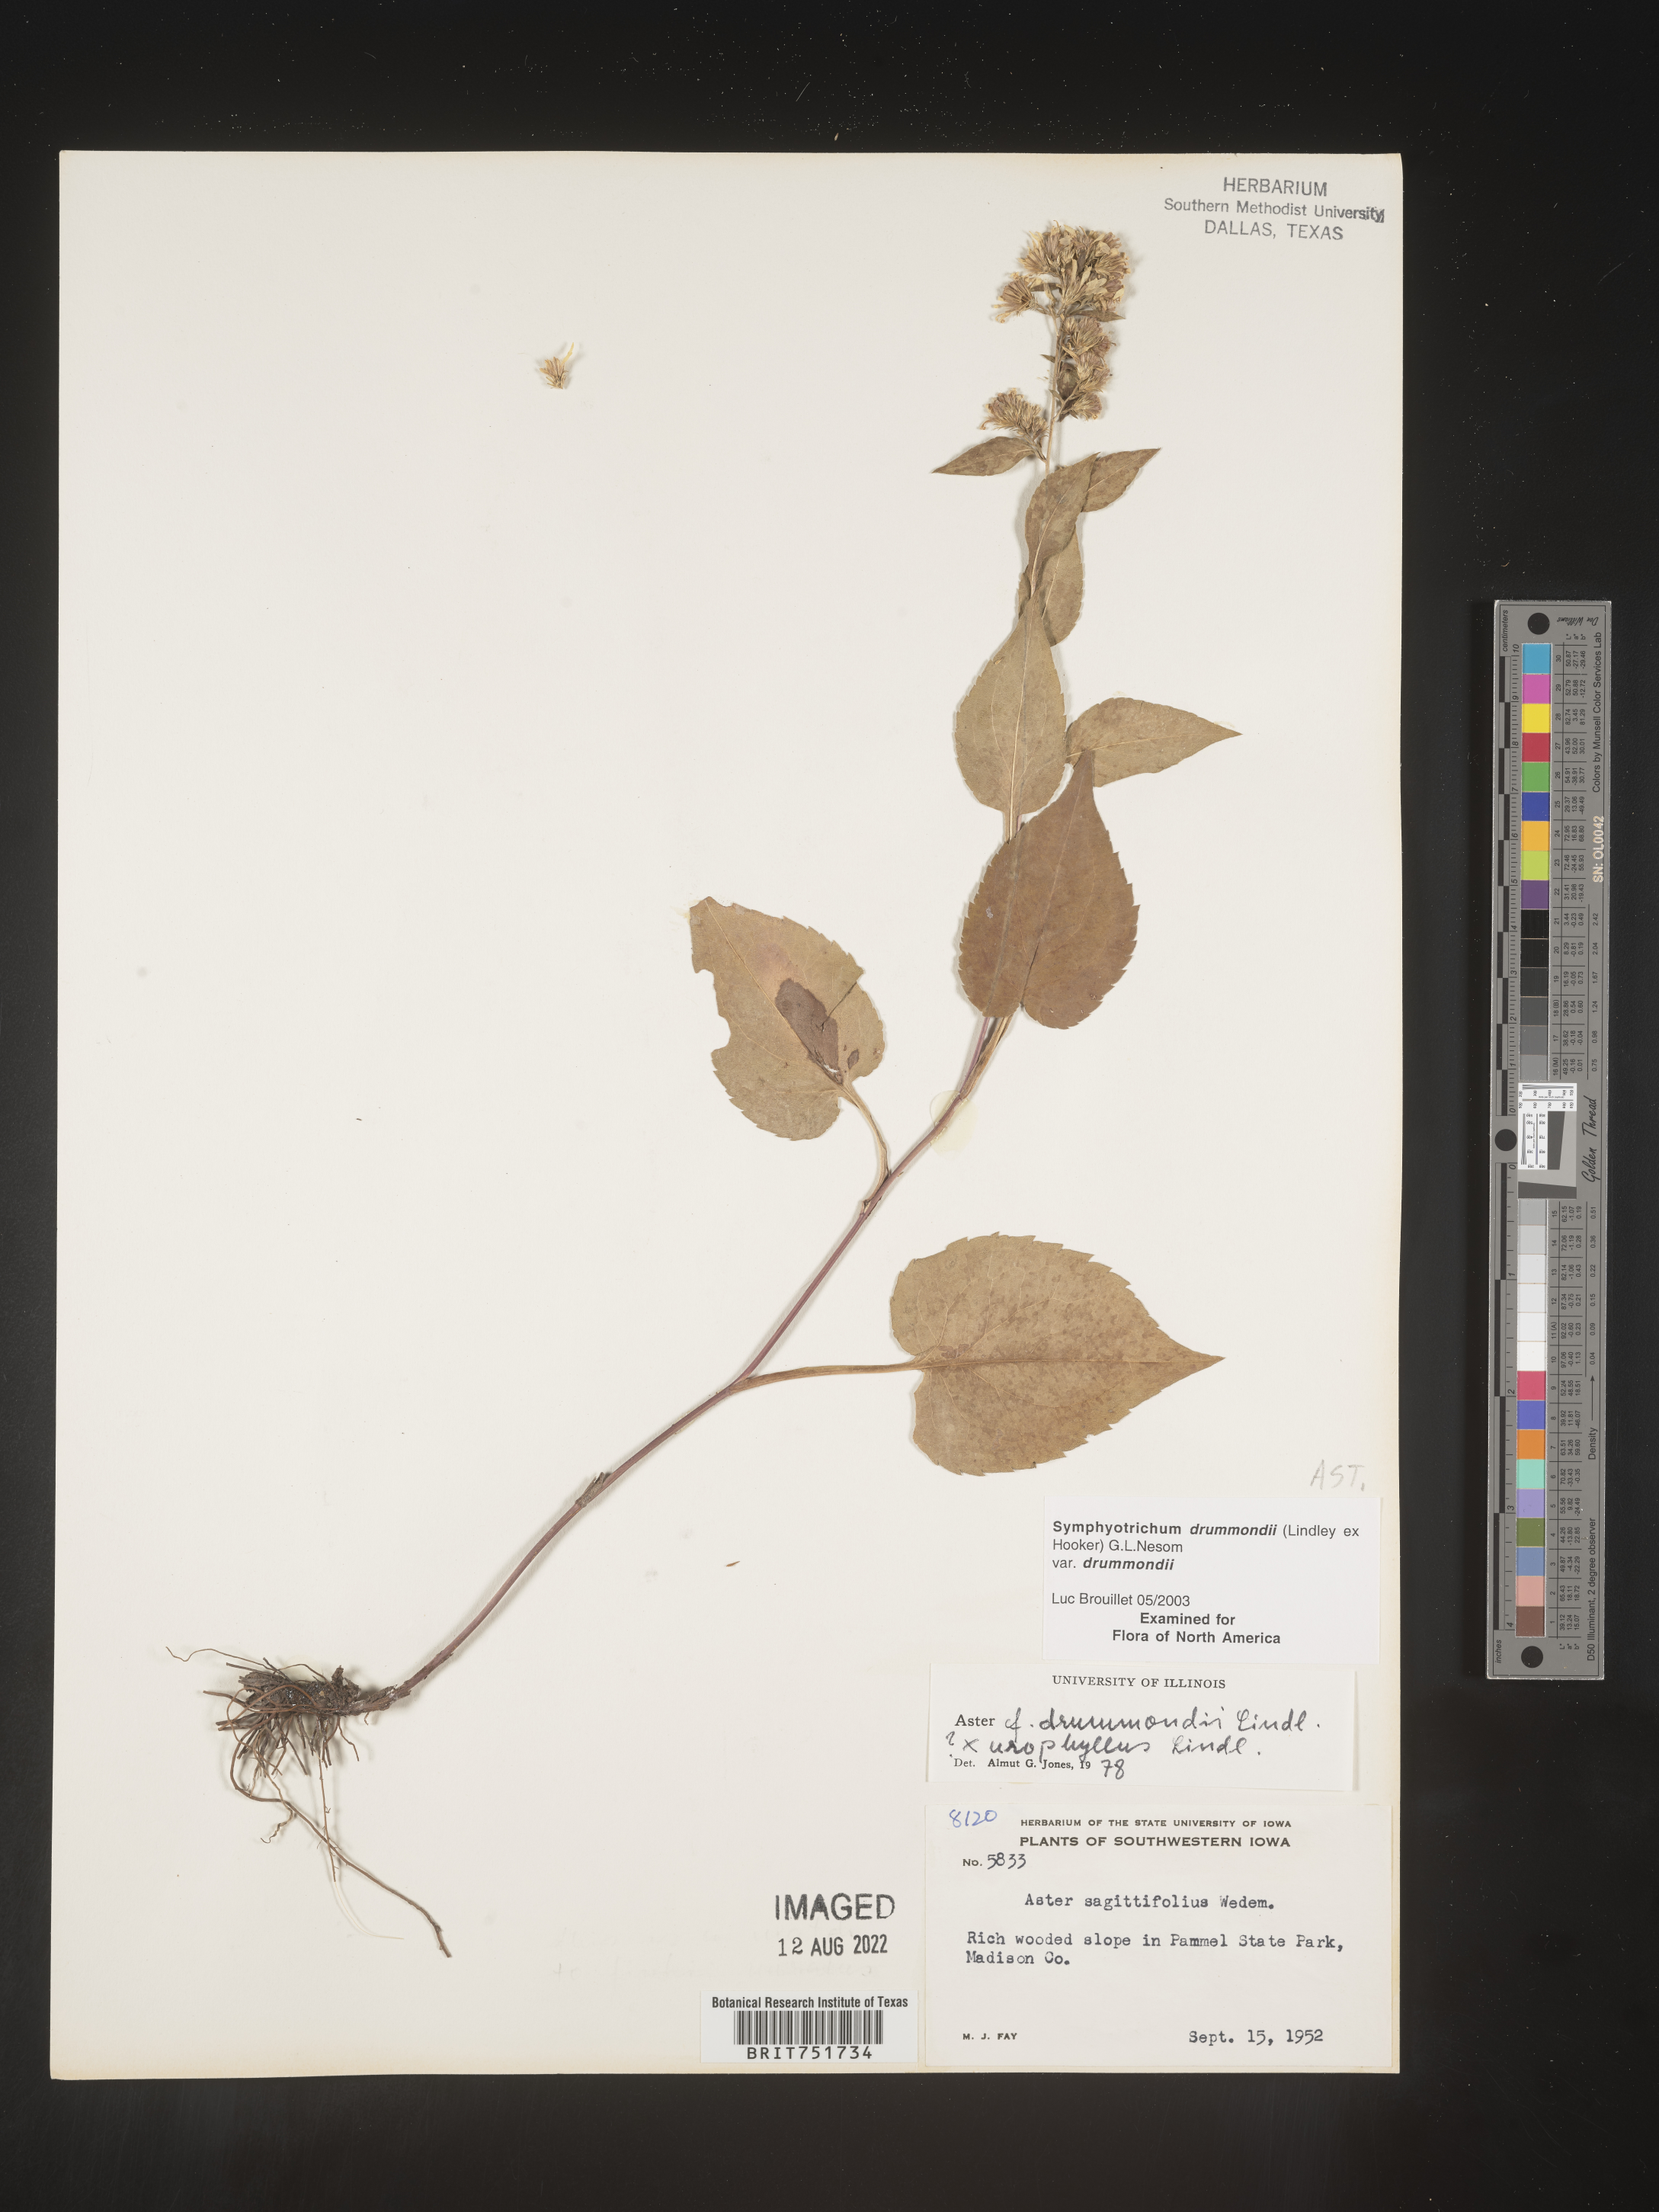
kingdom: Plantae
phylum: Tracheophyta
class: Magnoliopsida
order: Asterales
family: Asteraceae
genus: Symphyotrichum
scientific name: Symphyotrichum cordifolium
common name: Beeweed
